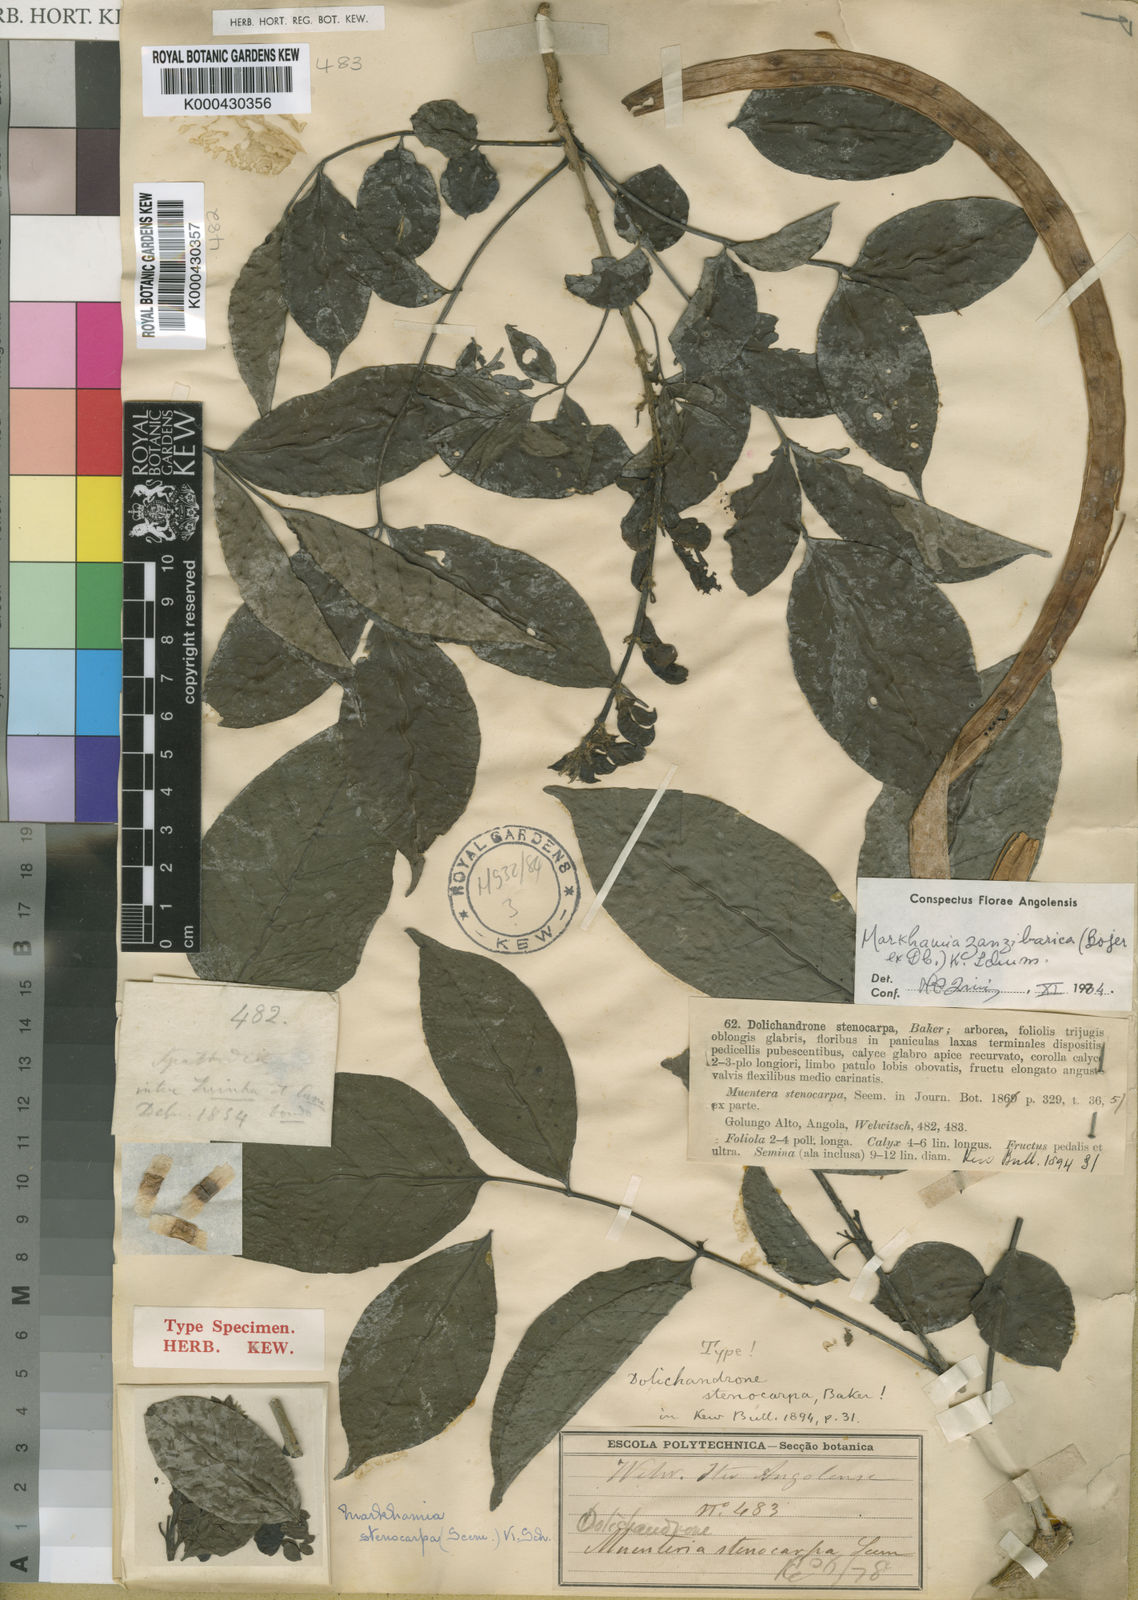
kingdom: Plantae
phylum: Tracheophyta
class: Magnoliopsida
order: Lamiales
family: Bignoniaceae
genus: Markhamia
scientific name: Markhamia zanzibarica
